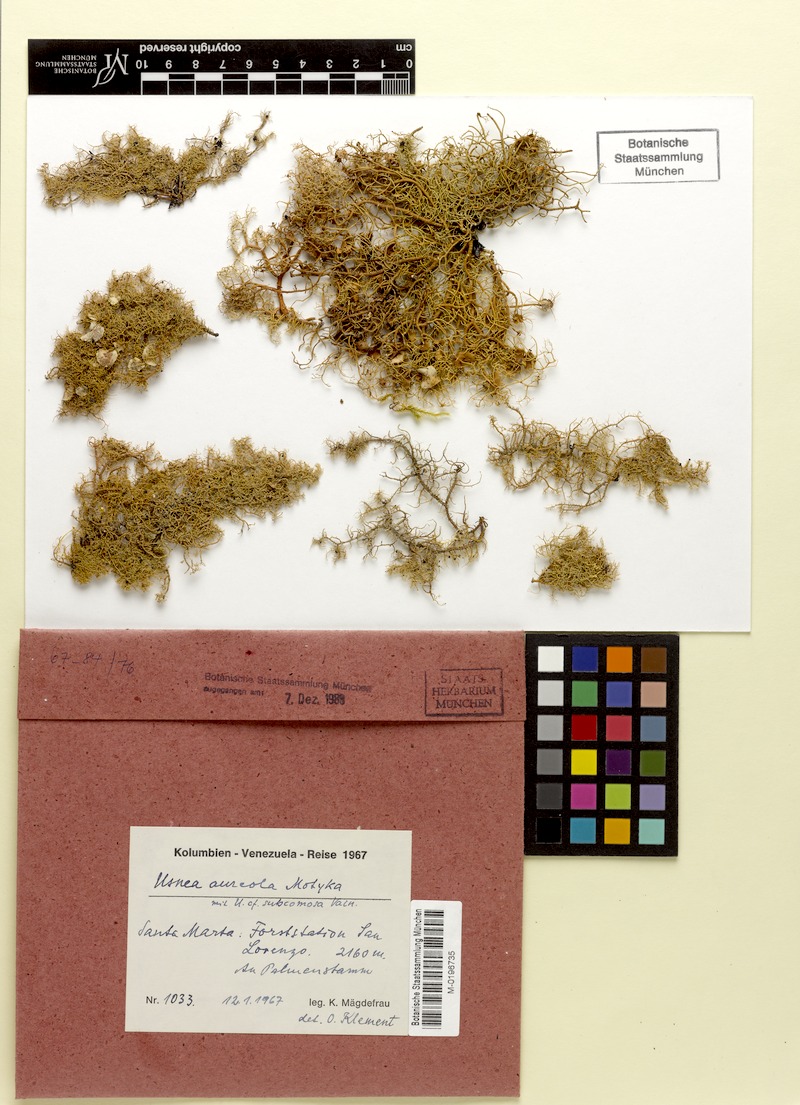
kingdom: Fungi
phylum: Ascomycota
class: Lecanoromycetes
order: Lecanorales
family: Parmeliaceae
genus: Usnea
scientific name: Usnea aureola
